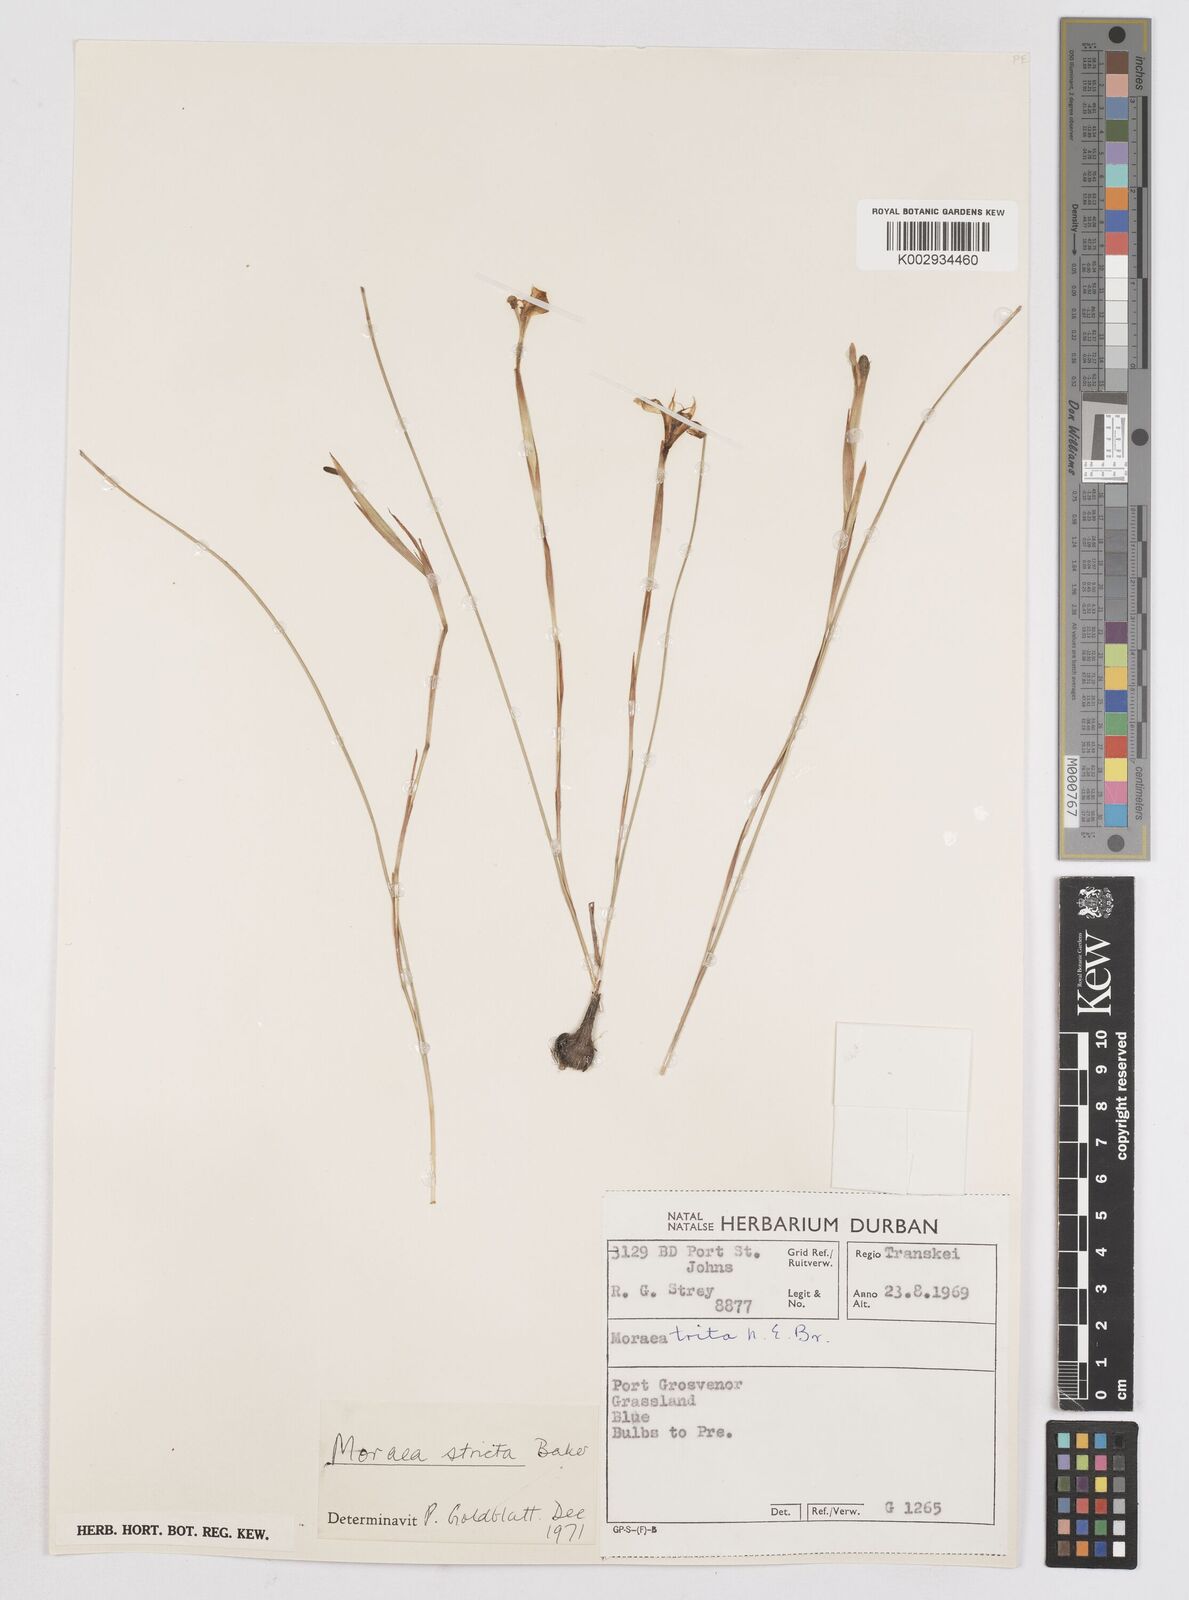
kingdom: Plantae
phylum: Tracheophyta
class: Liliopsida
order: Asparagales
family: Iridaceae
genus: Moraea
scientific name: Moraea stricta
